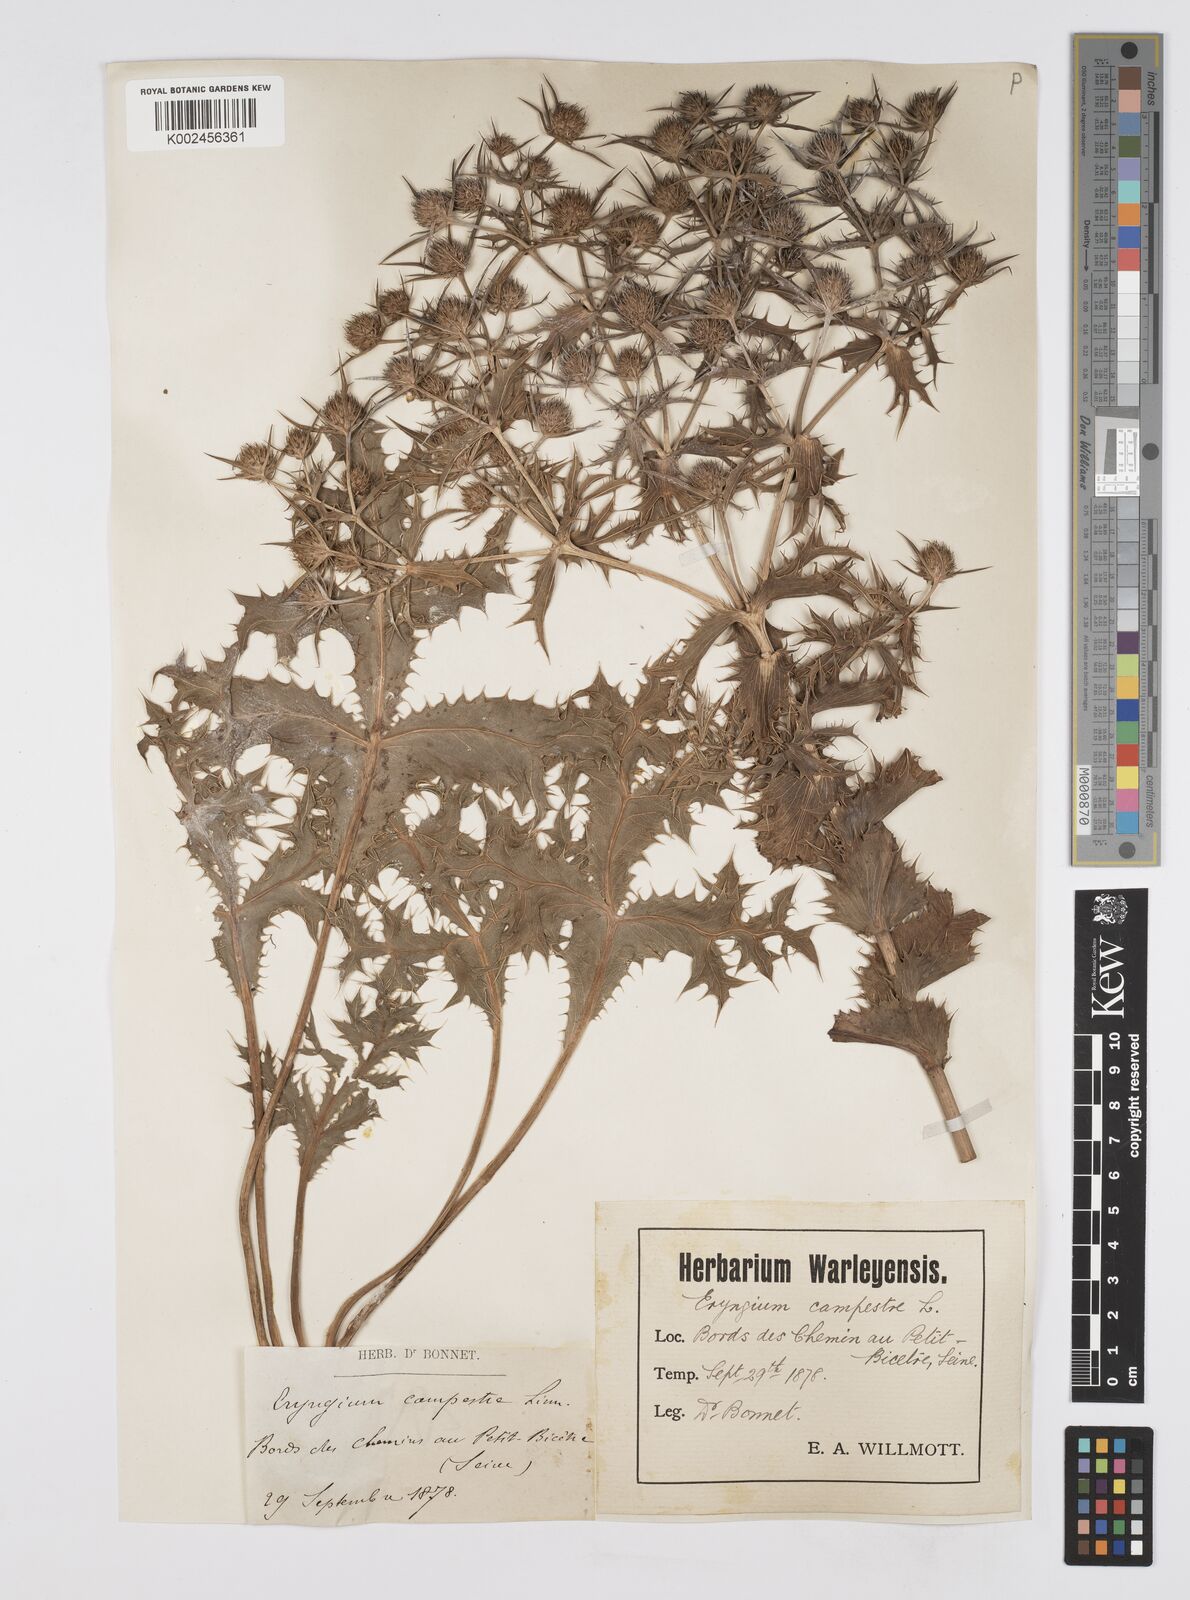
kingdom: Plantae
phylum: Tracheophyta
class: Magnoliopsida
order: Apiales
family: Apiaceae
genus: Eryngium
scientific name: Eryngium campestre
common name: Field eryngo
